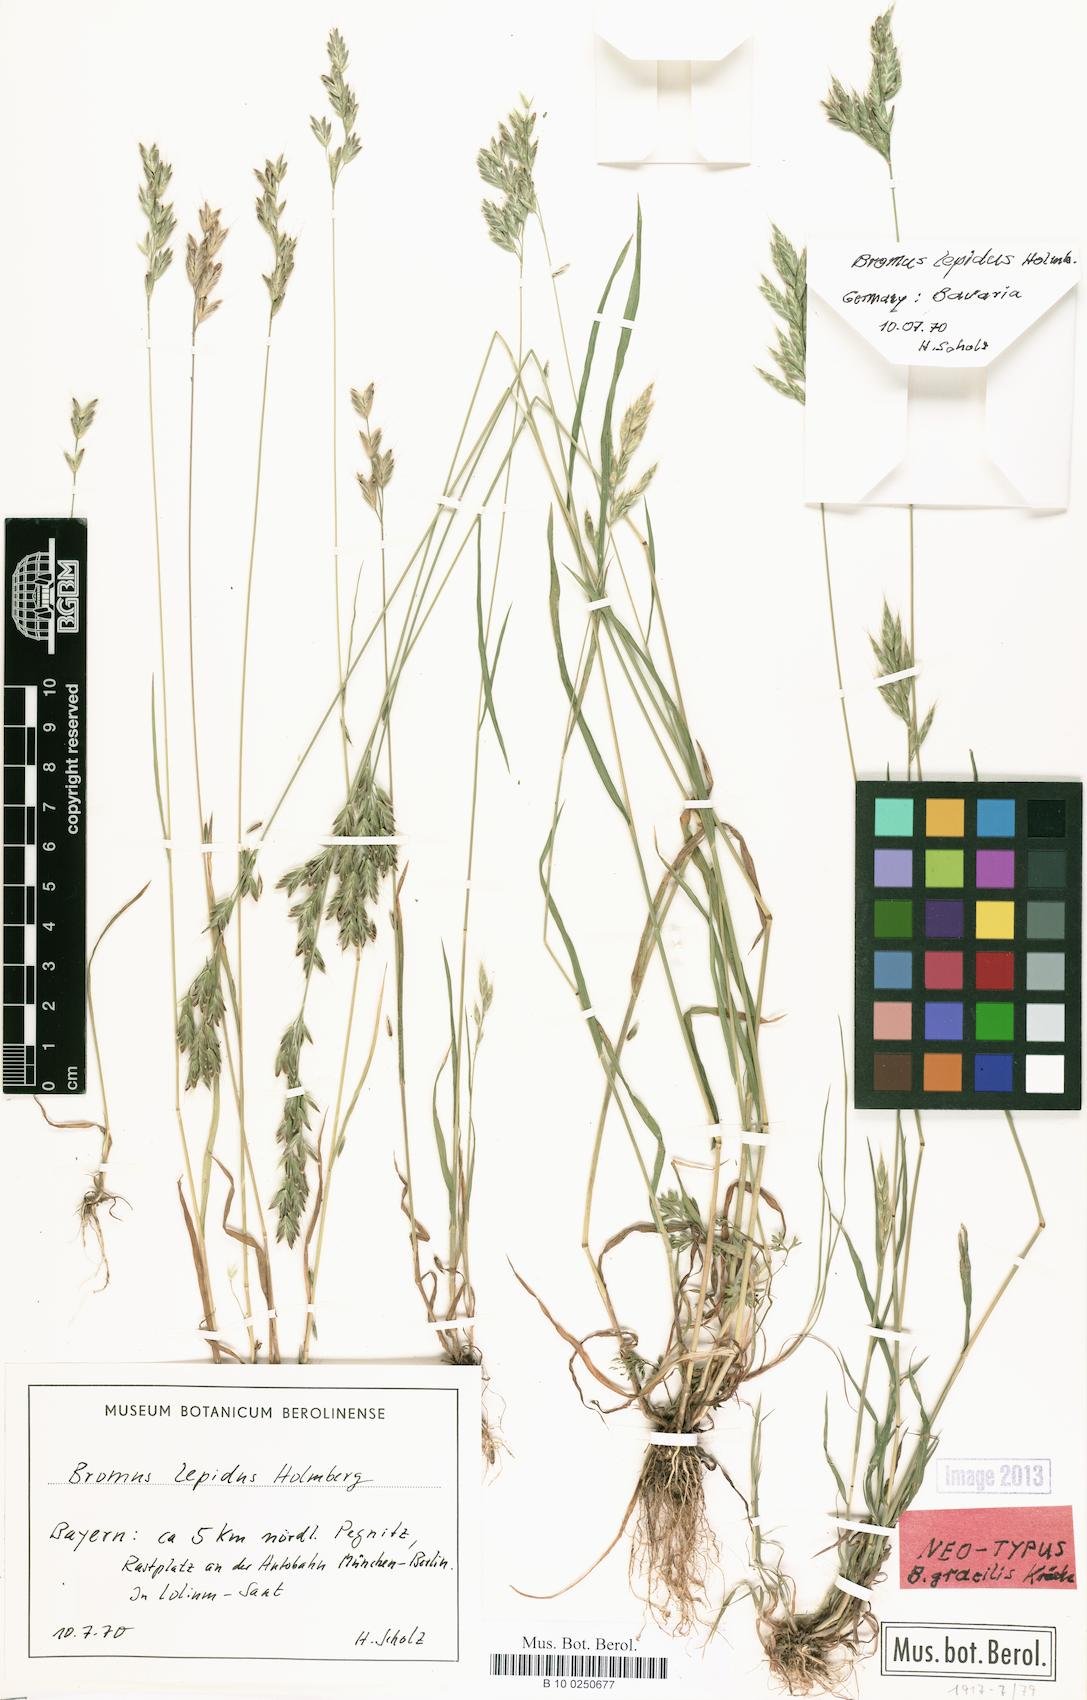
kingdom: Plantae
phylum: Tracheophyta
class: Liliopsida
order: Poales
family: Poaceae
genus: Bromus
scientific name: Bromus lepidus
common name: Slender soft-brome
